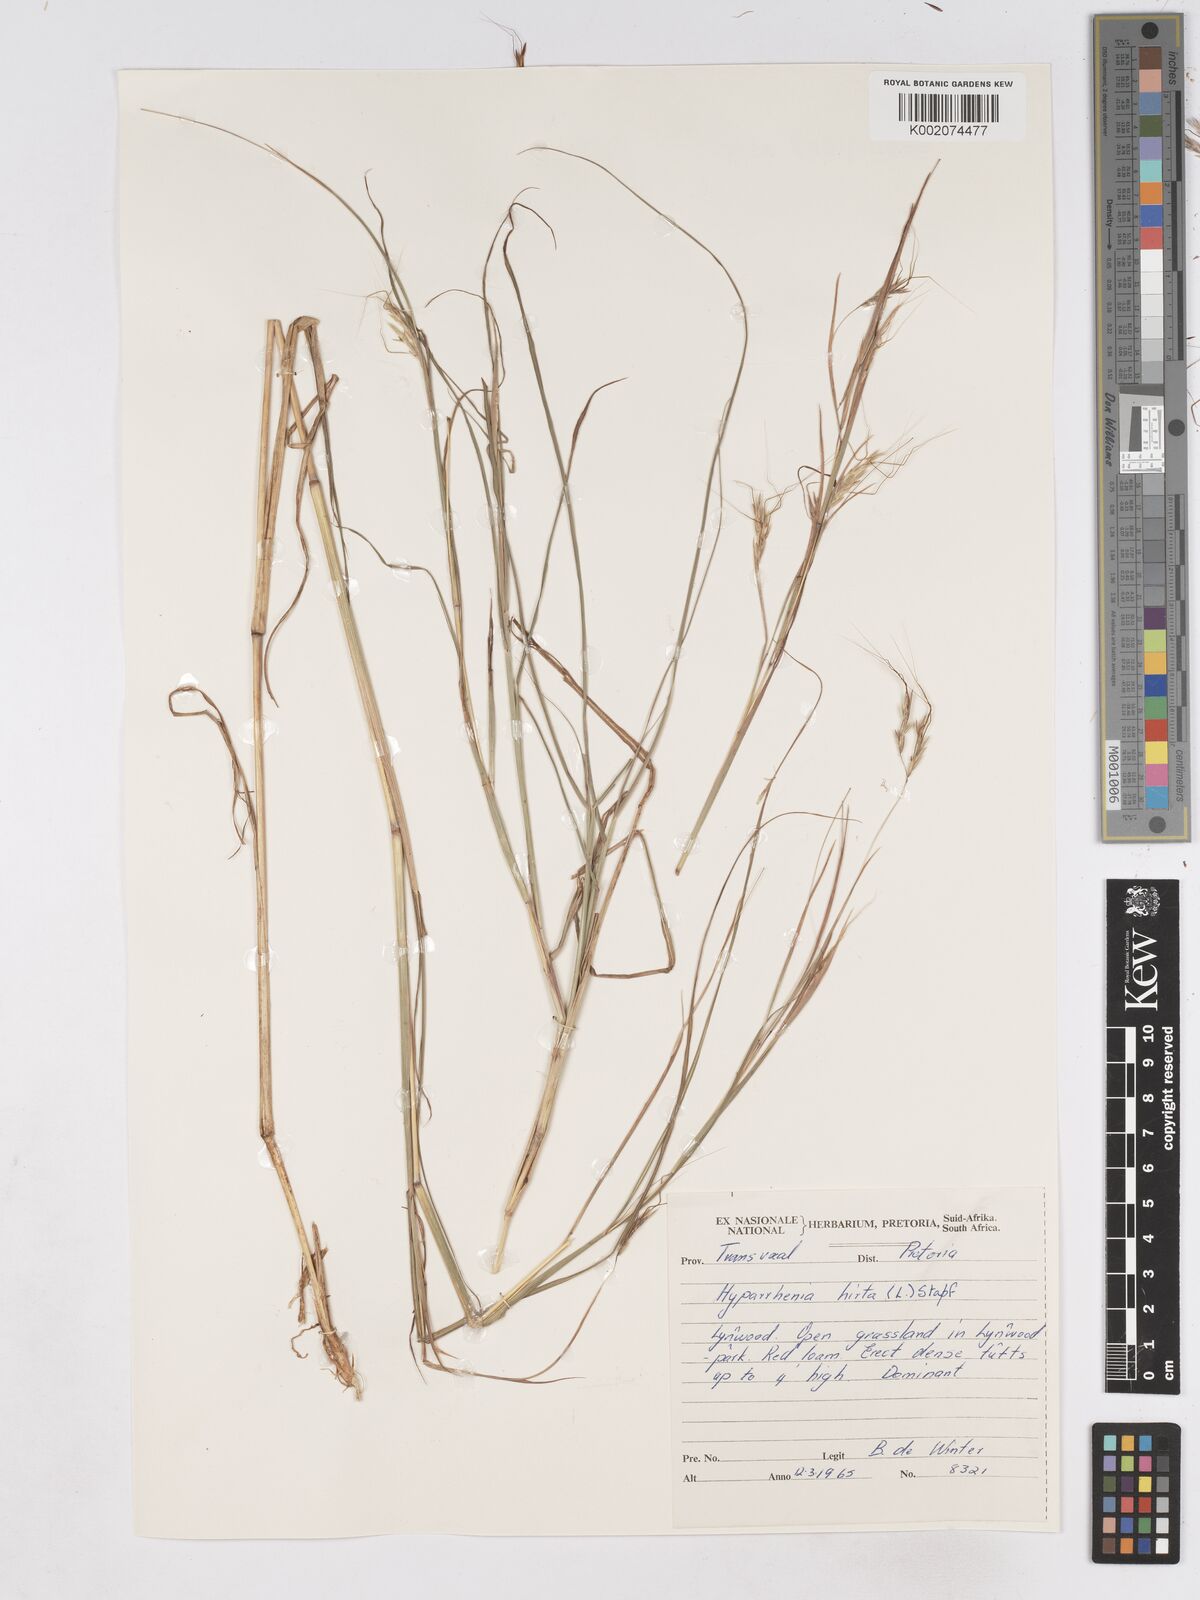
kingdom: Plantae
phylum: Tracheophyta
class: Liliopsida
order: Poales
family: Poaceae
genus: Hyparrhenia
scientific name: Hyparrhenia hirta
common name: Thatching grass
